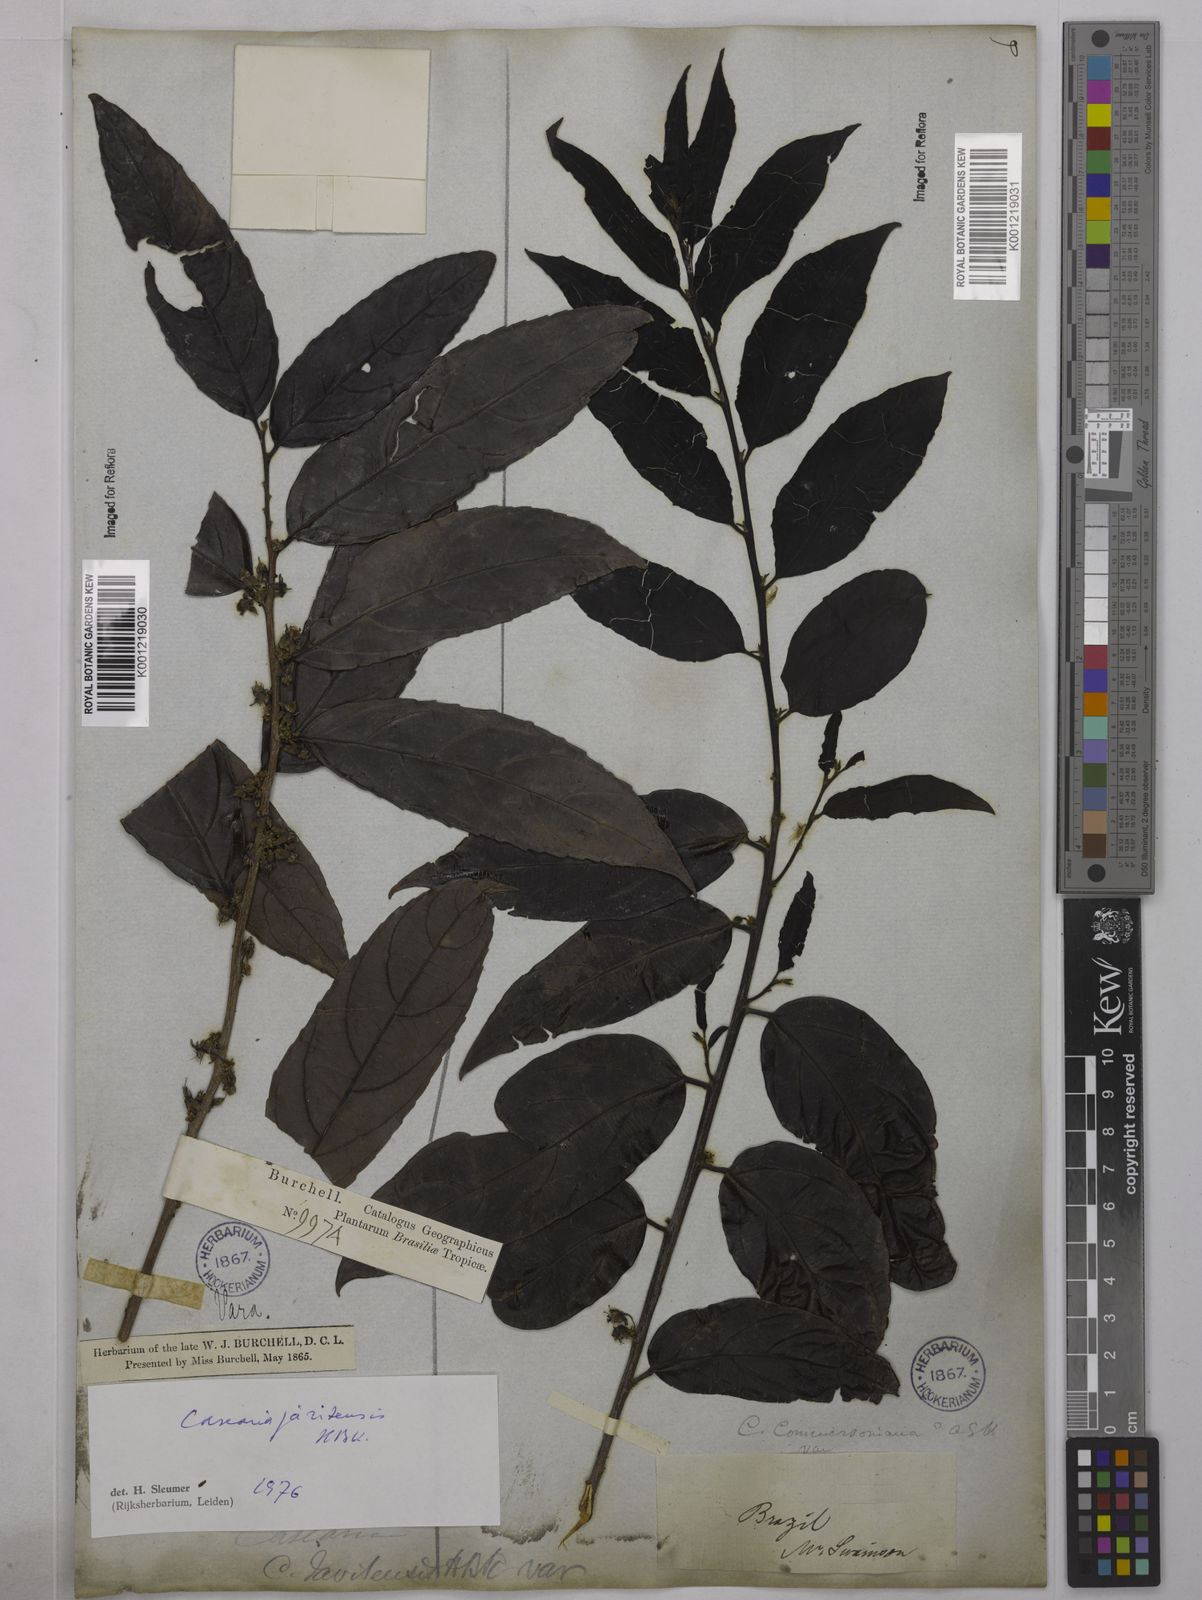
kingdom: Plantae
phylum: Tracheophyta
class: Magnoliopsida
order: Malpighiales
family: Salicaceae
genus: Piparea
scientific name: Piparea multiflora
